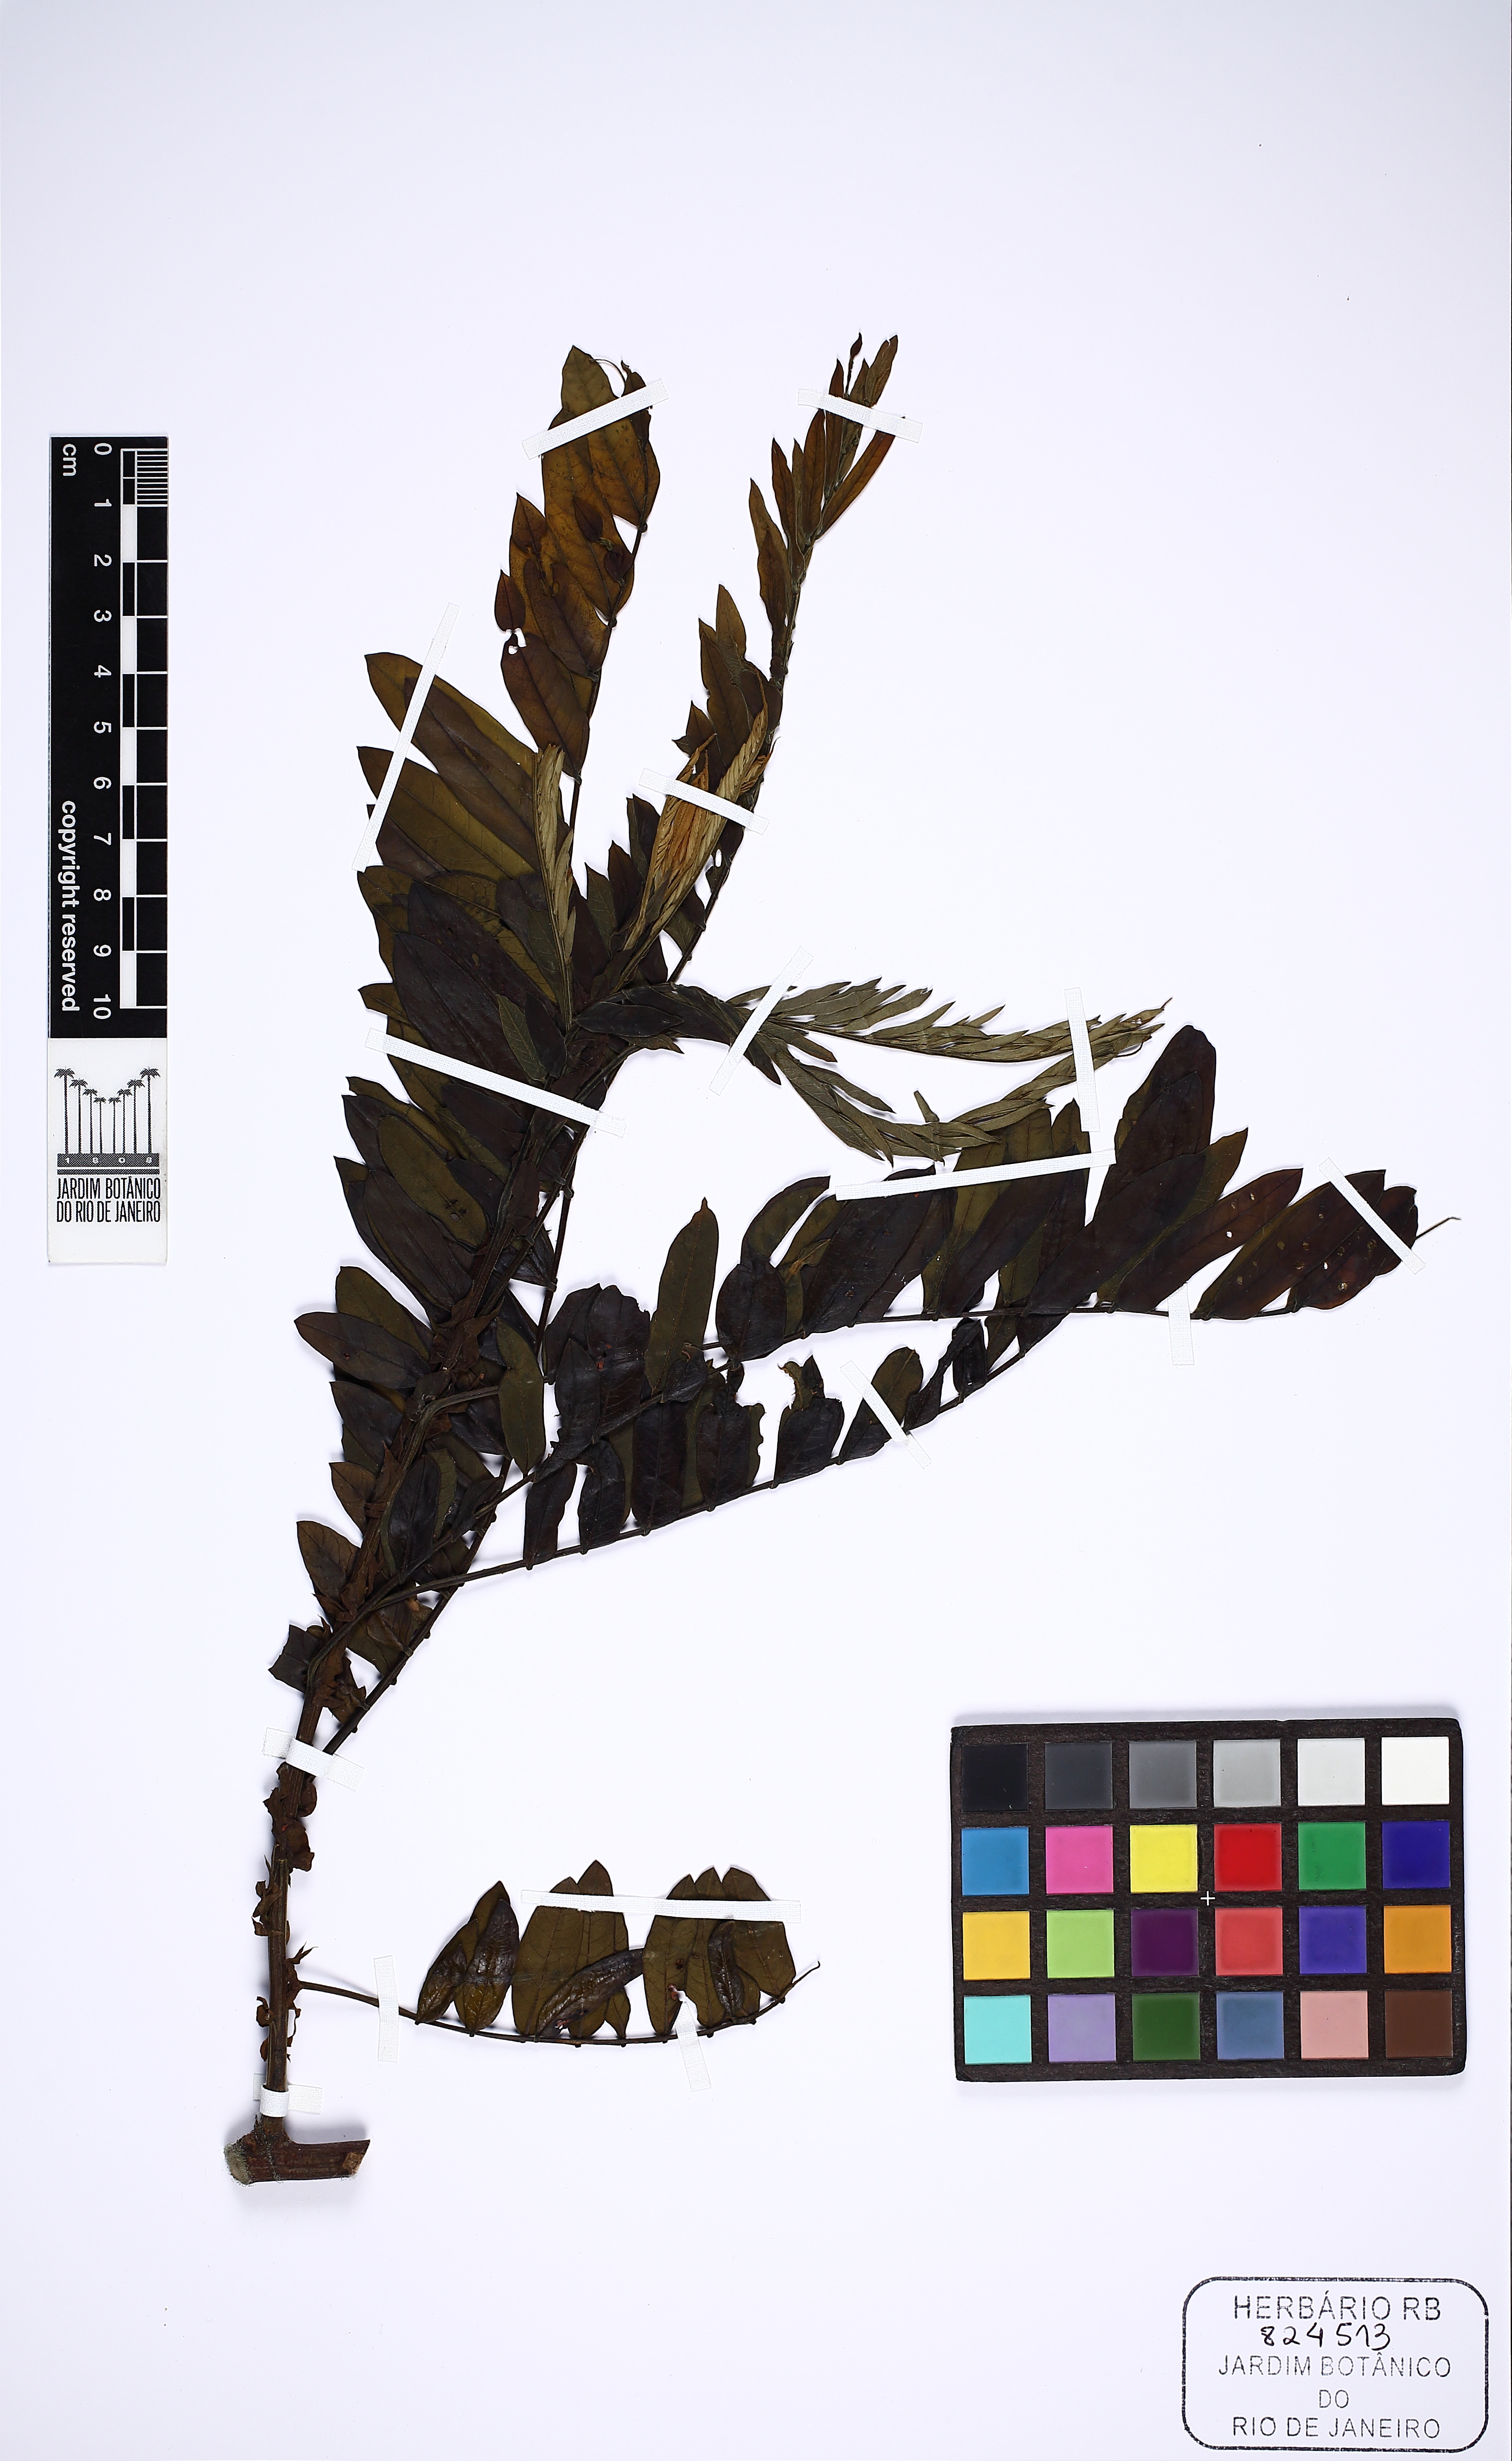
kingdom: Plantae
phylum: Tracheophyta
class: Magnoliopsida
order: Fabales
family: Fabaceae
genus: Cassia
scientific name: Cassia fastuosa
